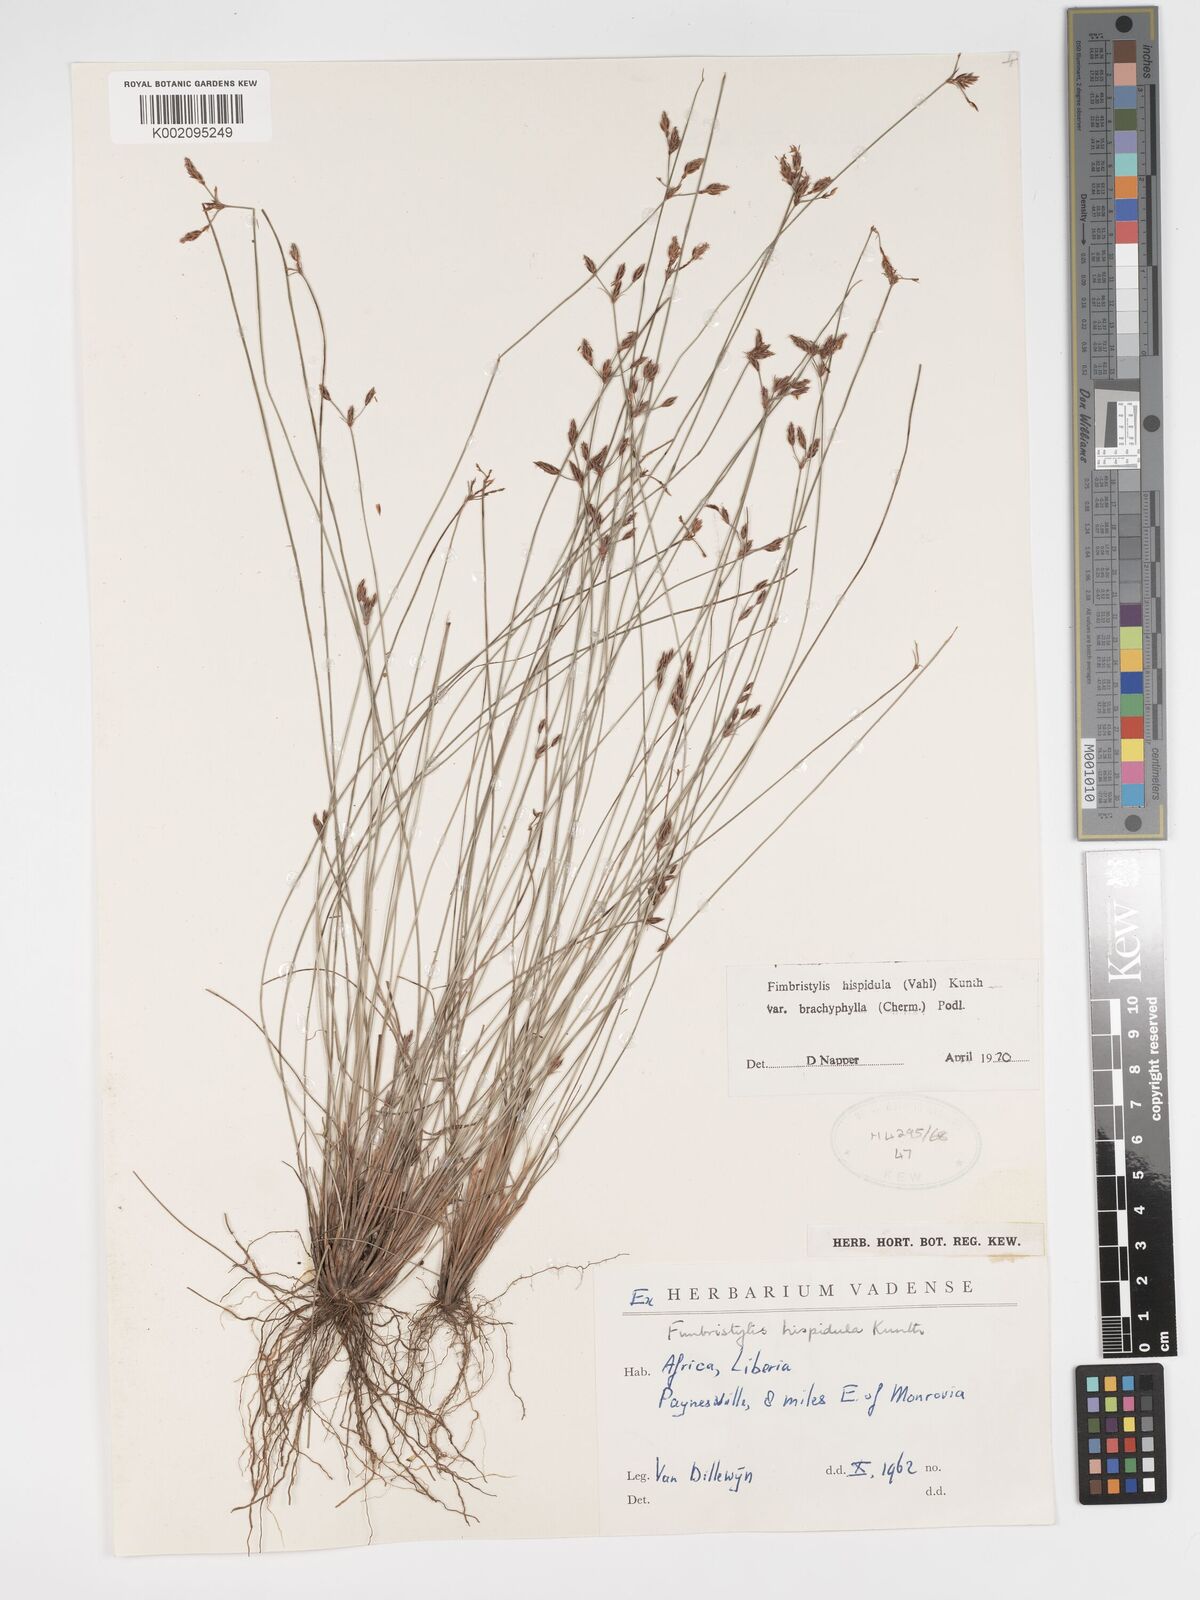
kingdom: Plantae
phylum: Tracheophyta
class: Liliopsida
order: Poales
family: Cyperaceae
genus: Bulbostylis
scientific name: Bulbostylis hispidula
